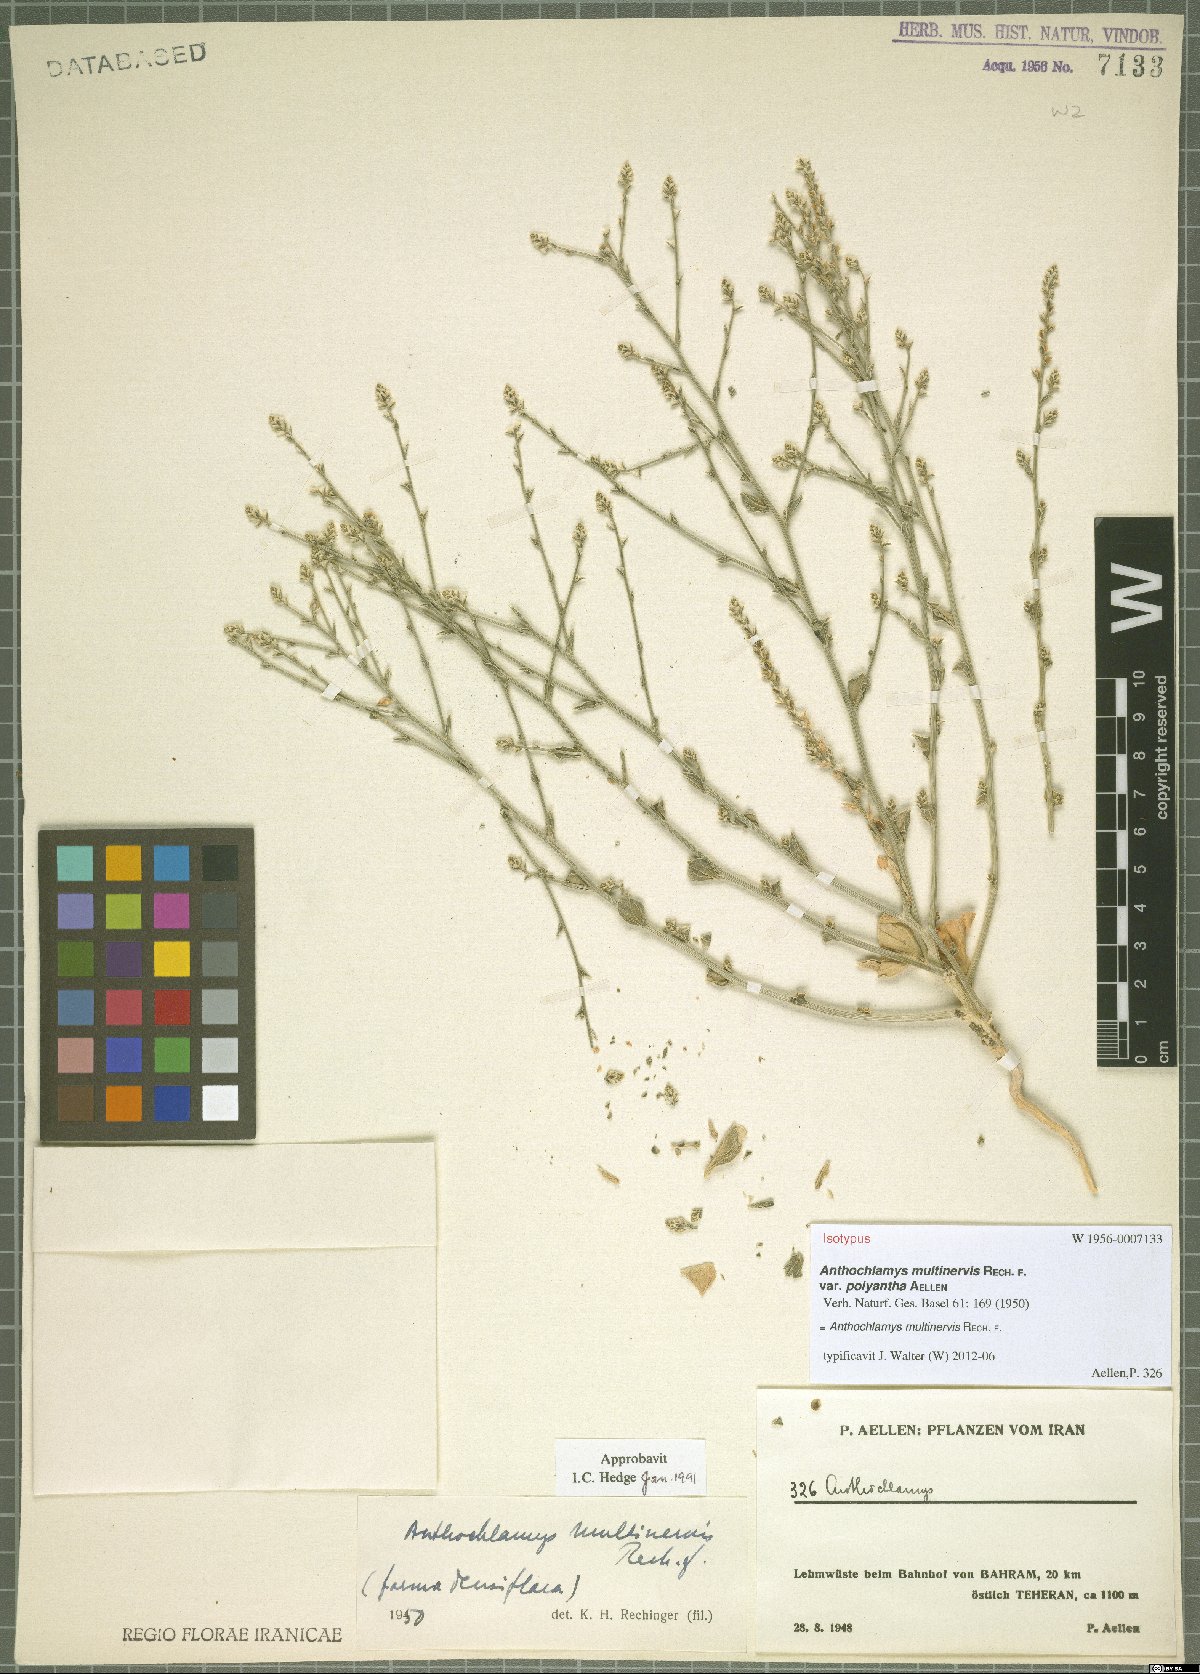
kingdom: Plantae
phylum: Tracheophyta
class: Magnoliopsida
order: Caryophyllales
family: Amaranthaceae
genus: Anthochlamys
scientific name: Anthochlamys multinervis
